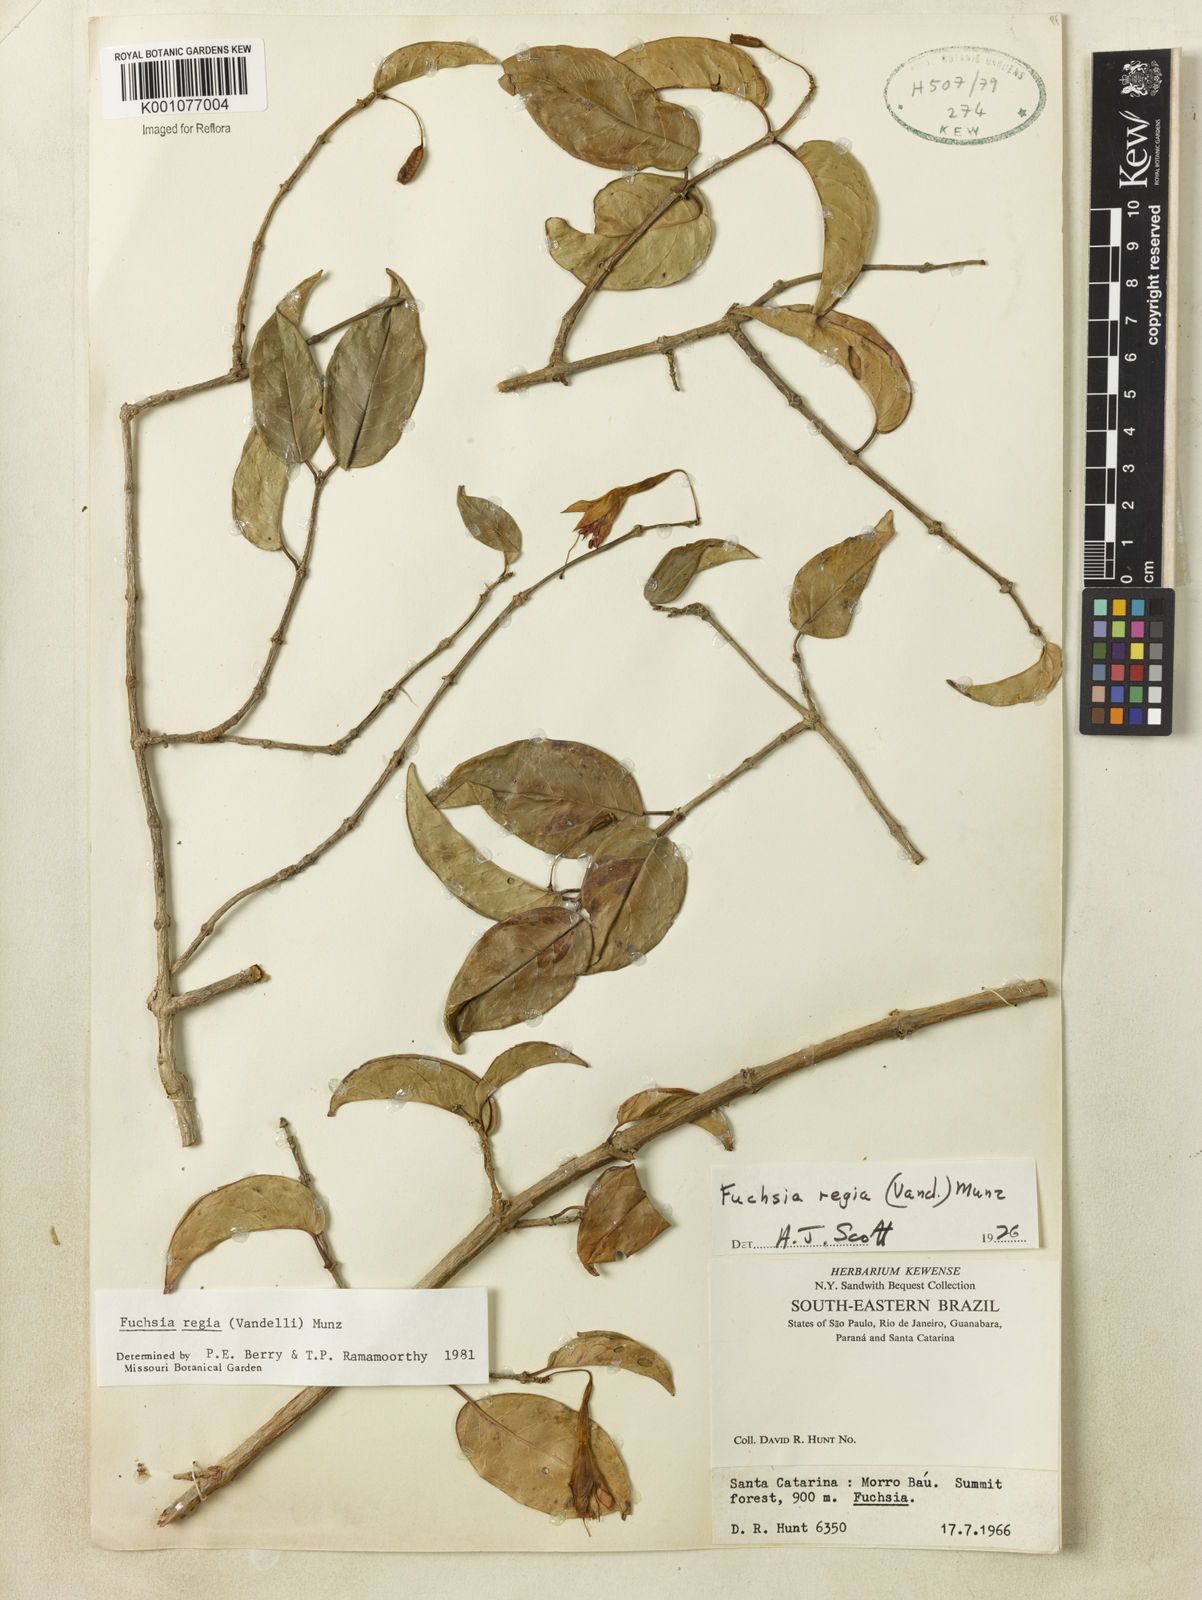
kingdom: Plantae
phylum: Tracheophyta
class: Magnoliopsida
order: Myrtales
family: Onagraceae
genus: Fuchsia
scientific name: Fuchsia regia
